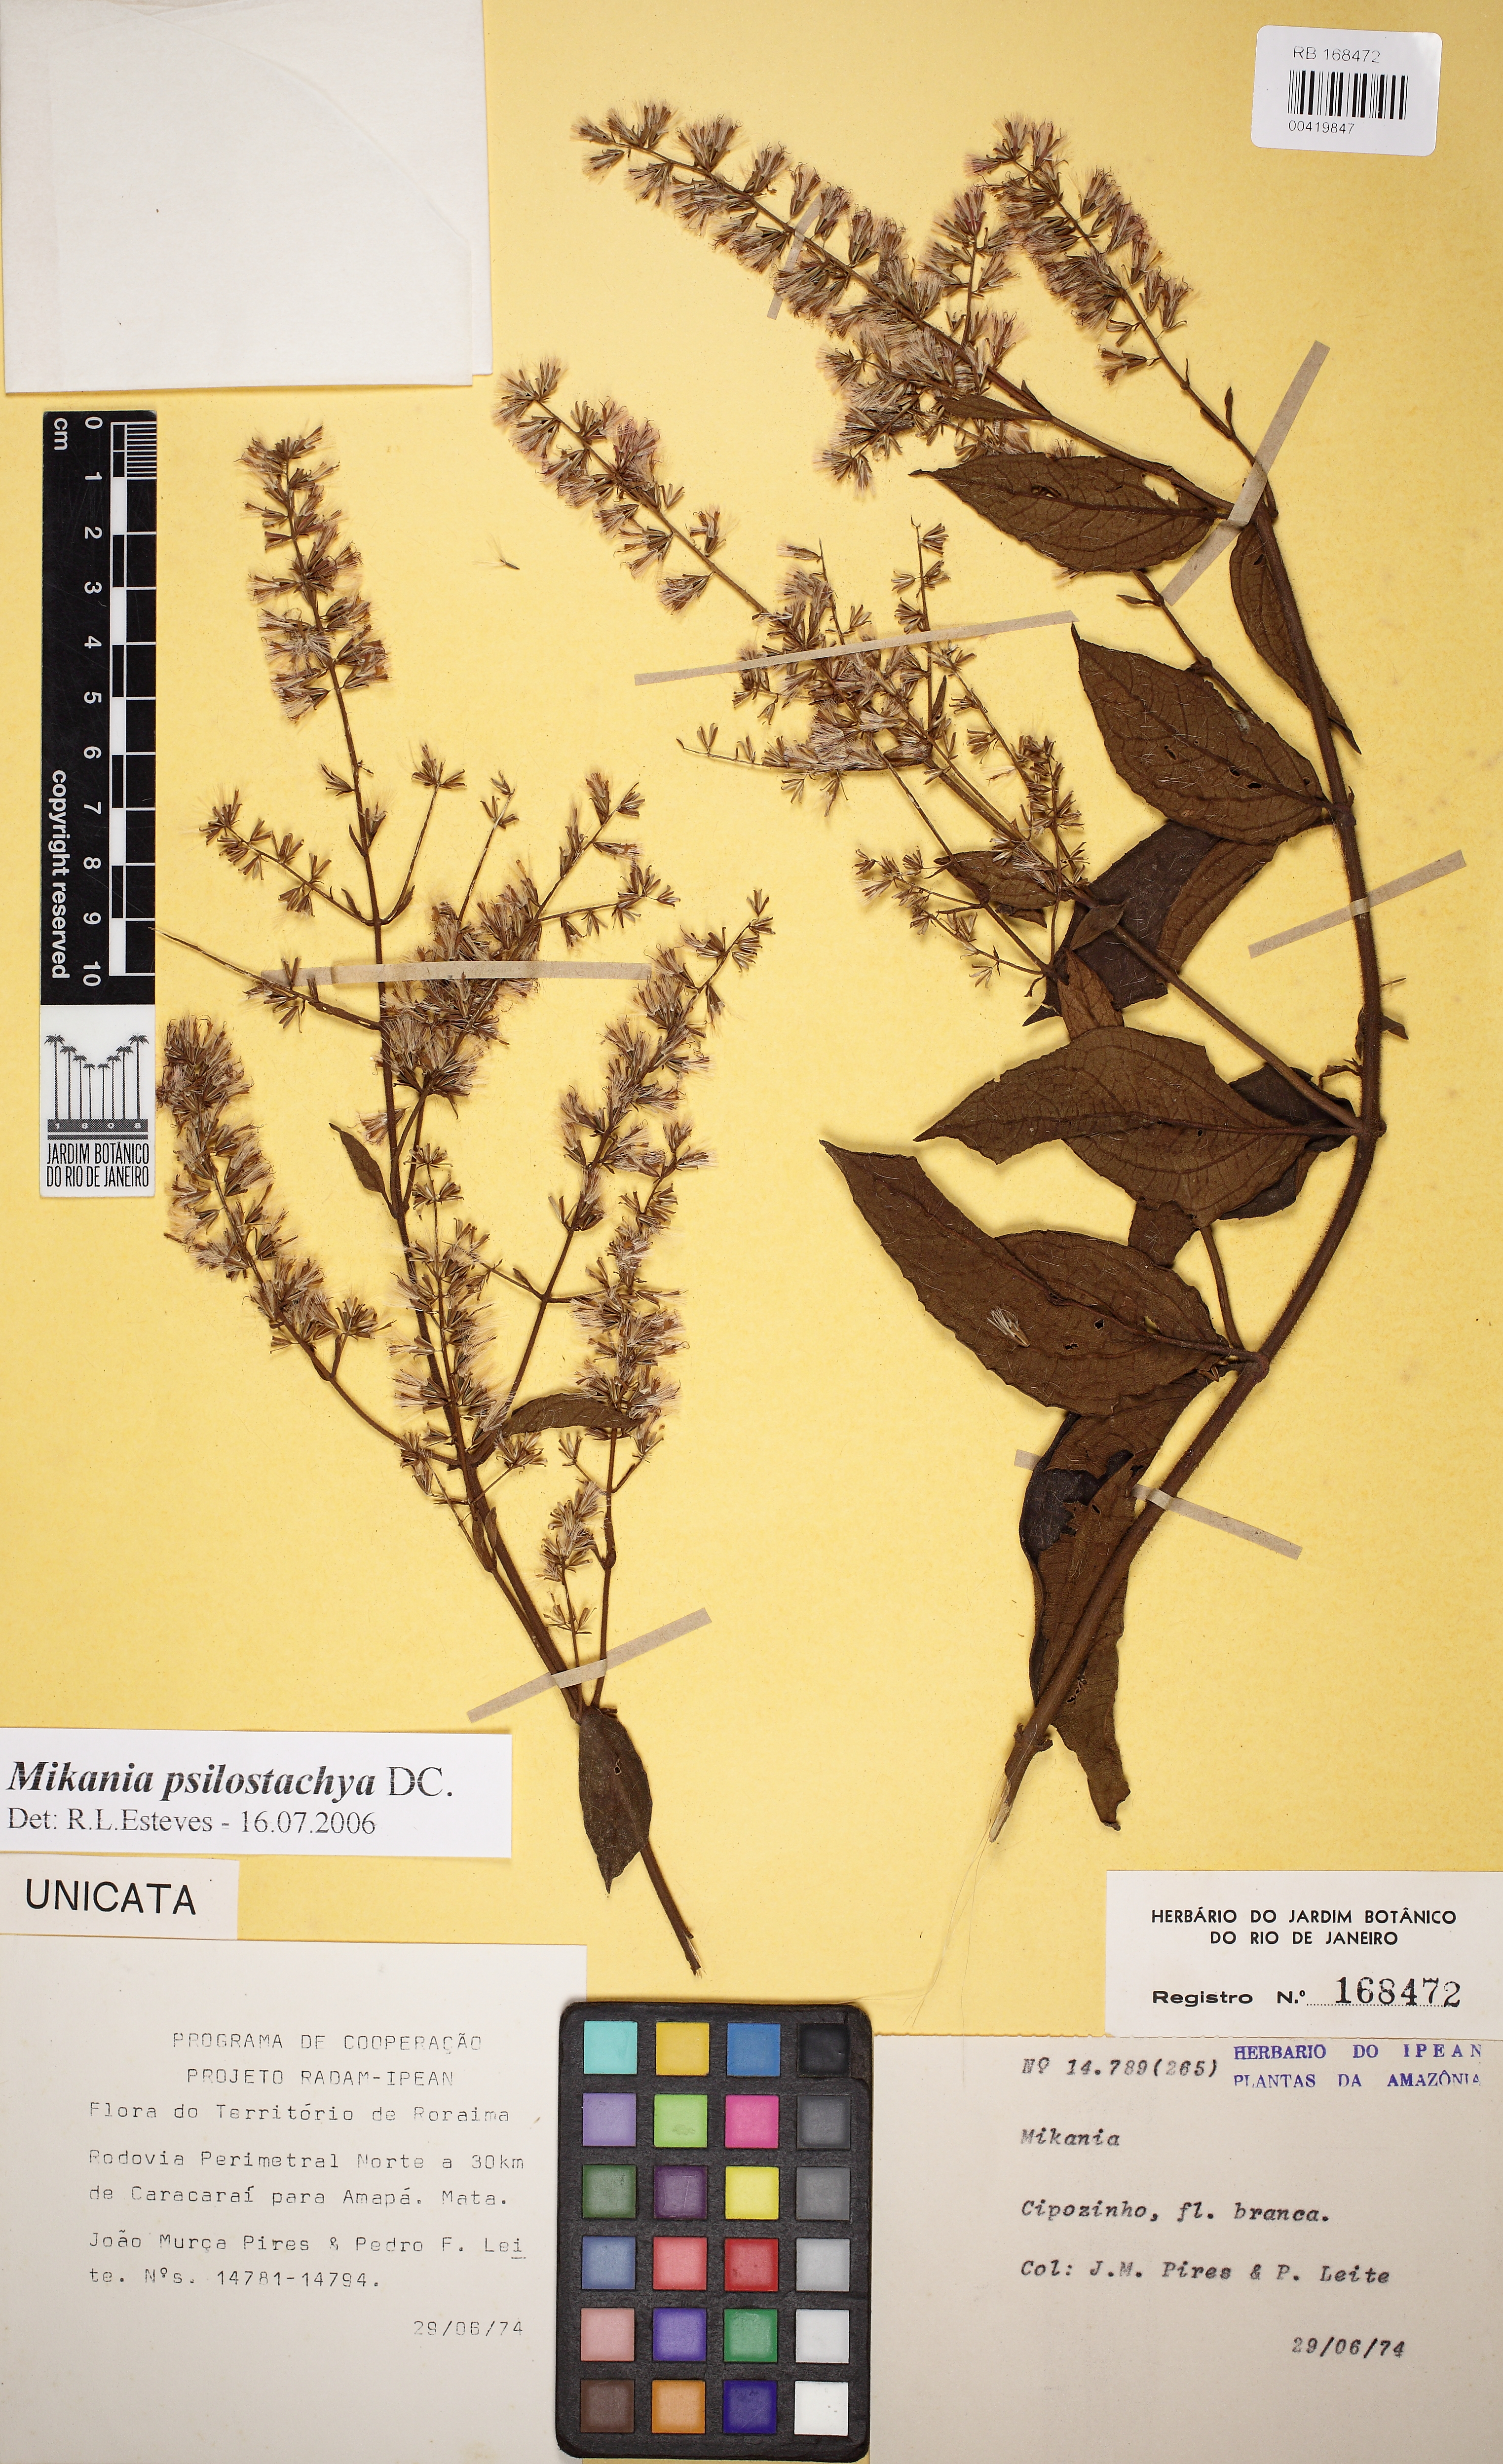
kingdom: Plantae
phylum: Tracheophyta
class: Magnoliopsida
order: Asterales
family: Asteraceae
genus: Mikania
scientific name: Mikania psilostachya
